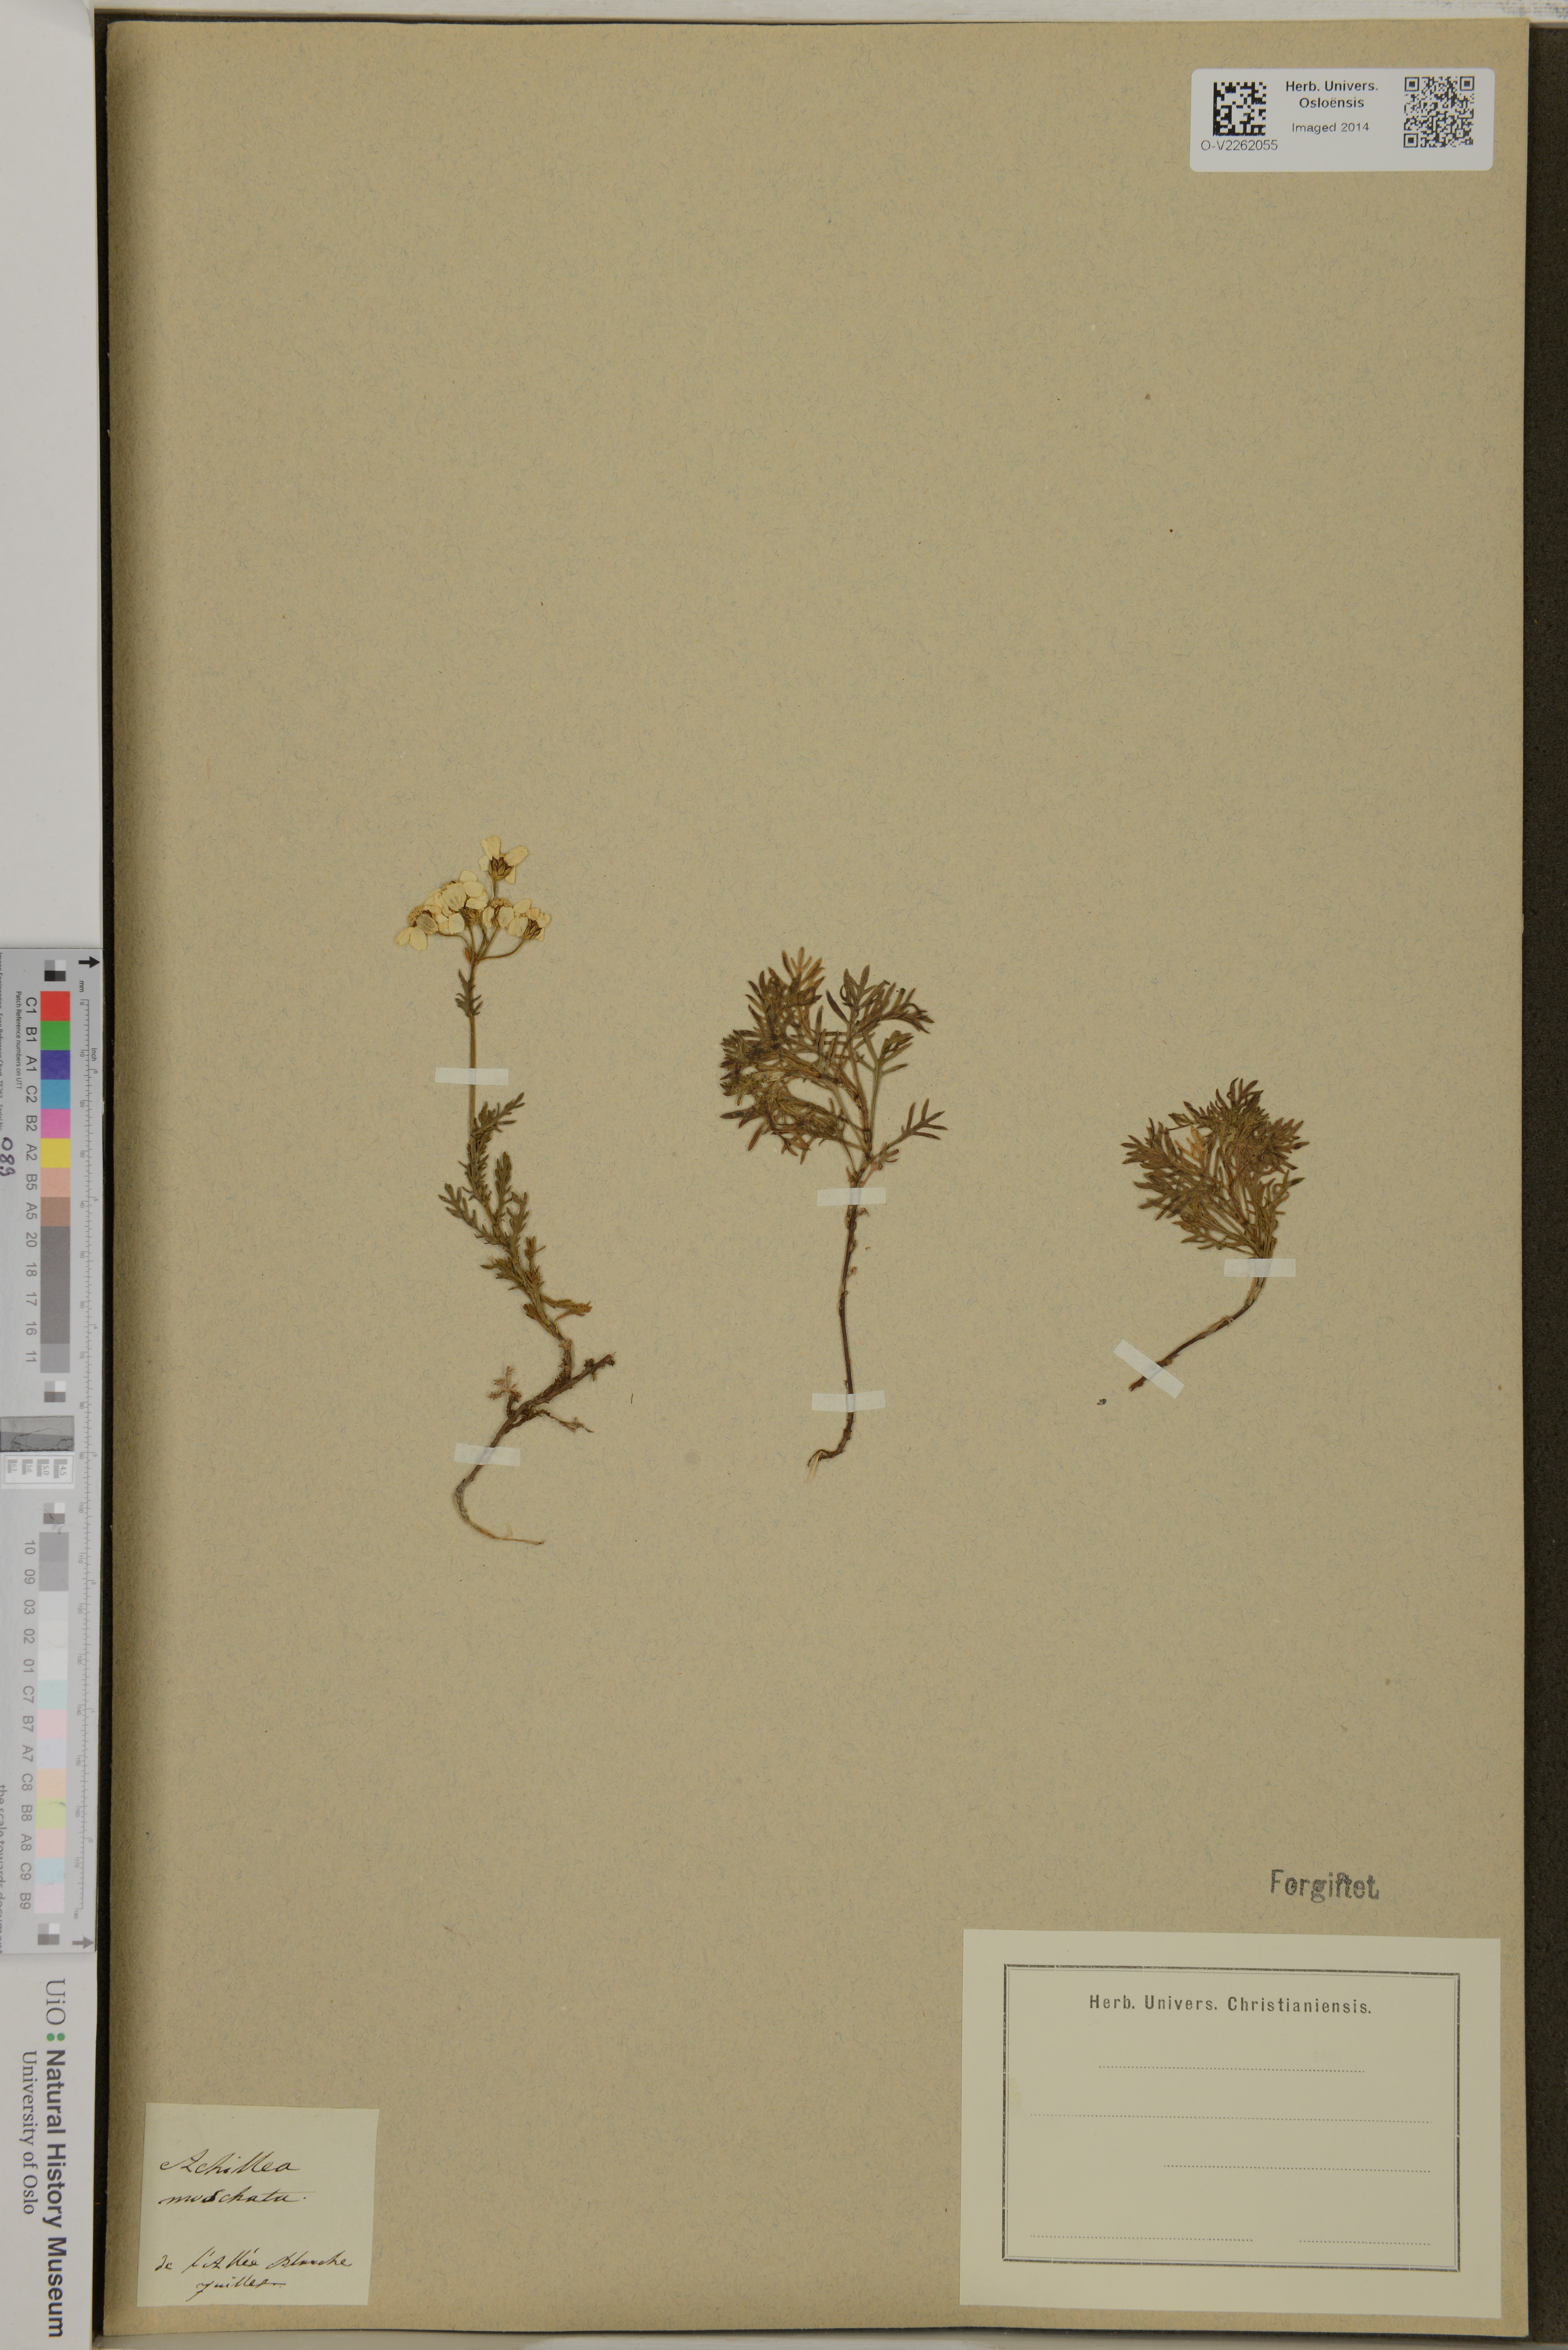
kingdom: Plantae
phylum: Tracheophyta
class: Magnoliopsida
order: Asterales
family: Asteraceae
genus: Achillea
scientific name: Achillea erba-rotta
